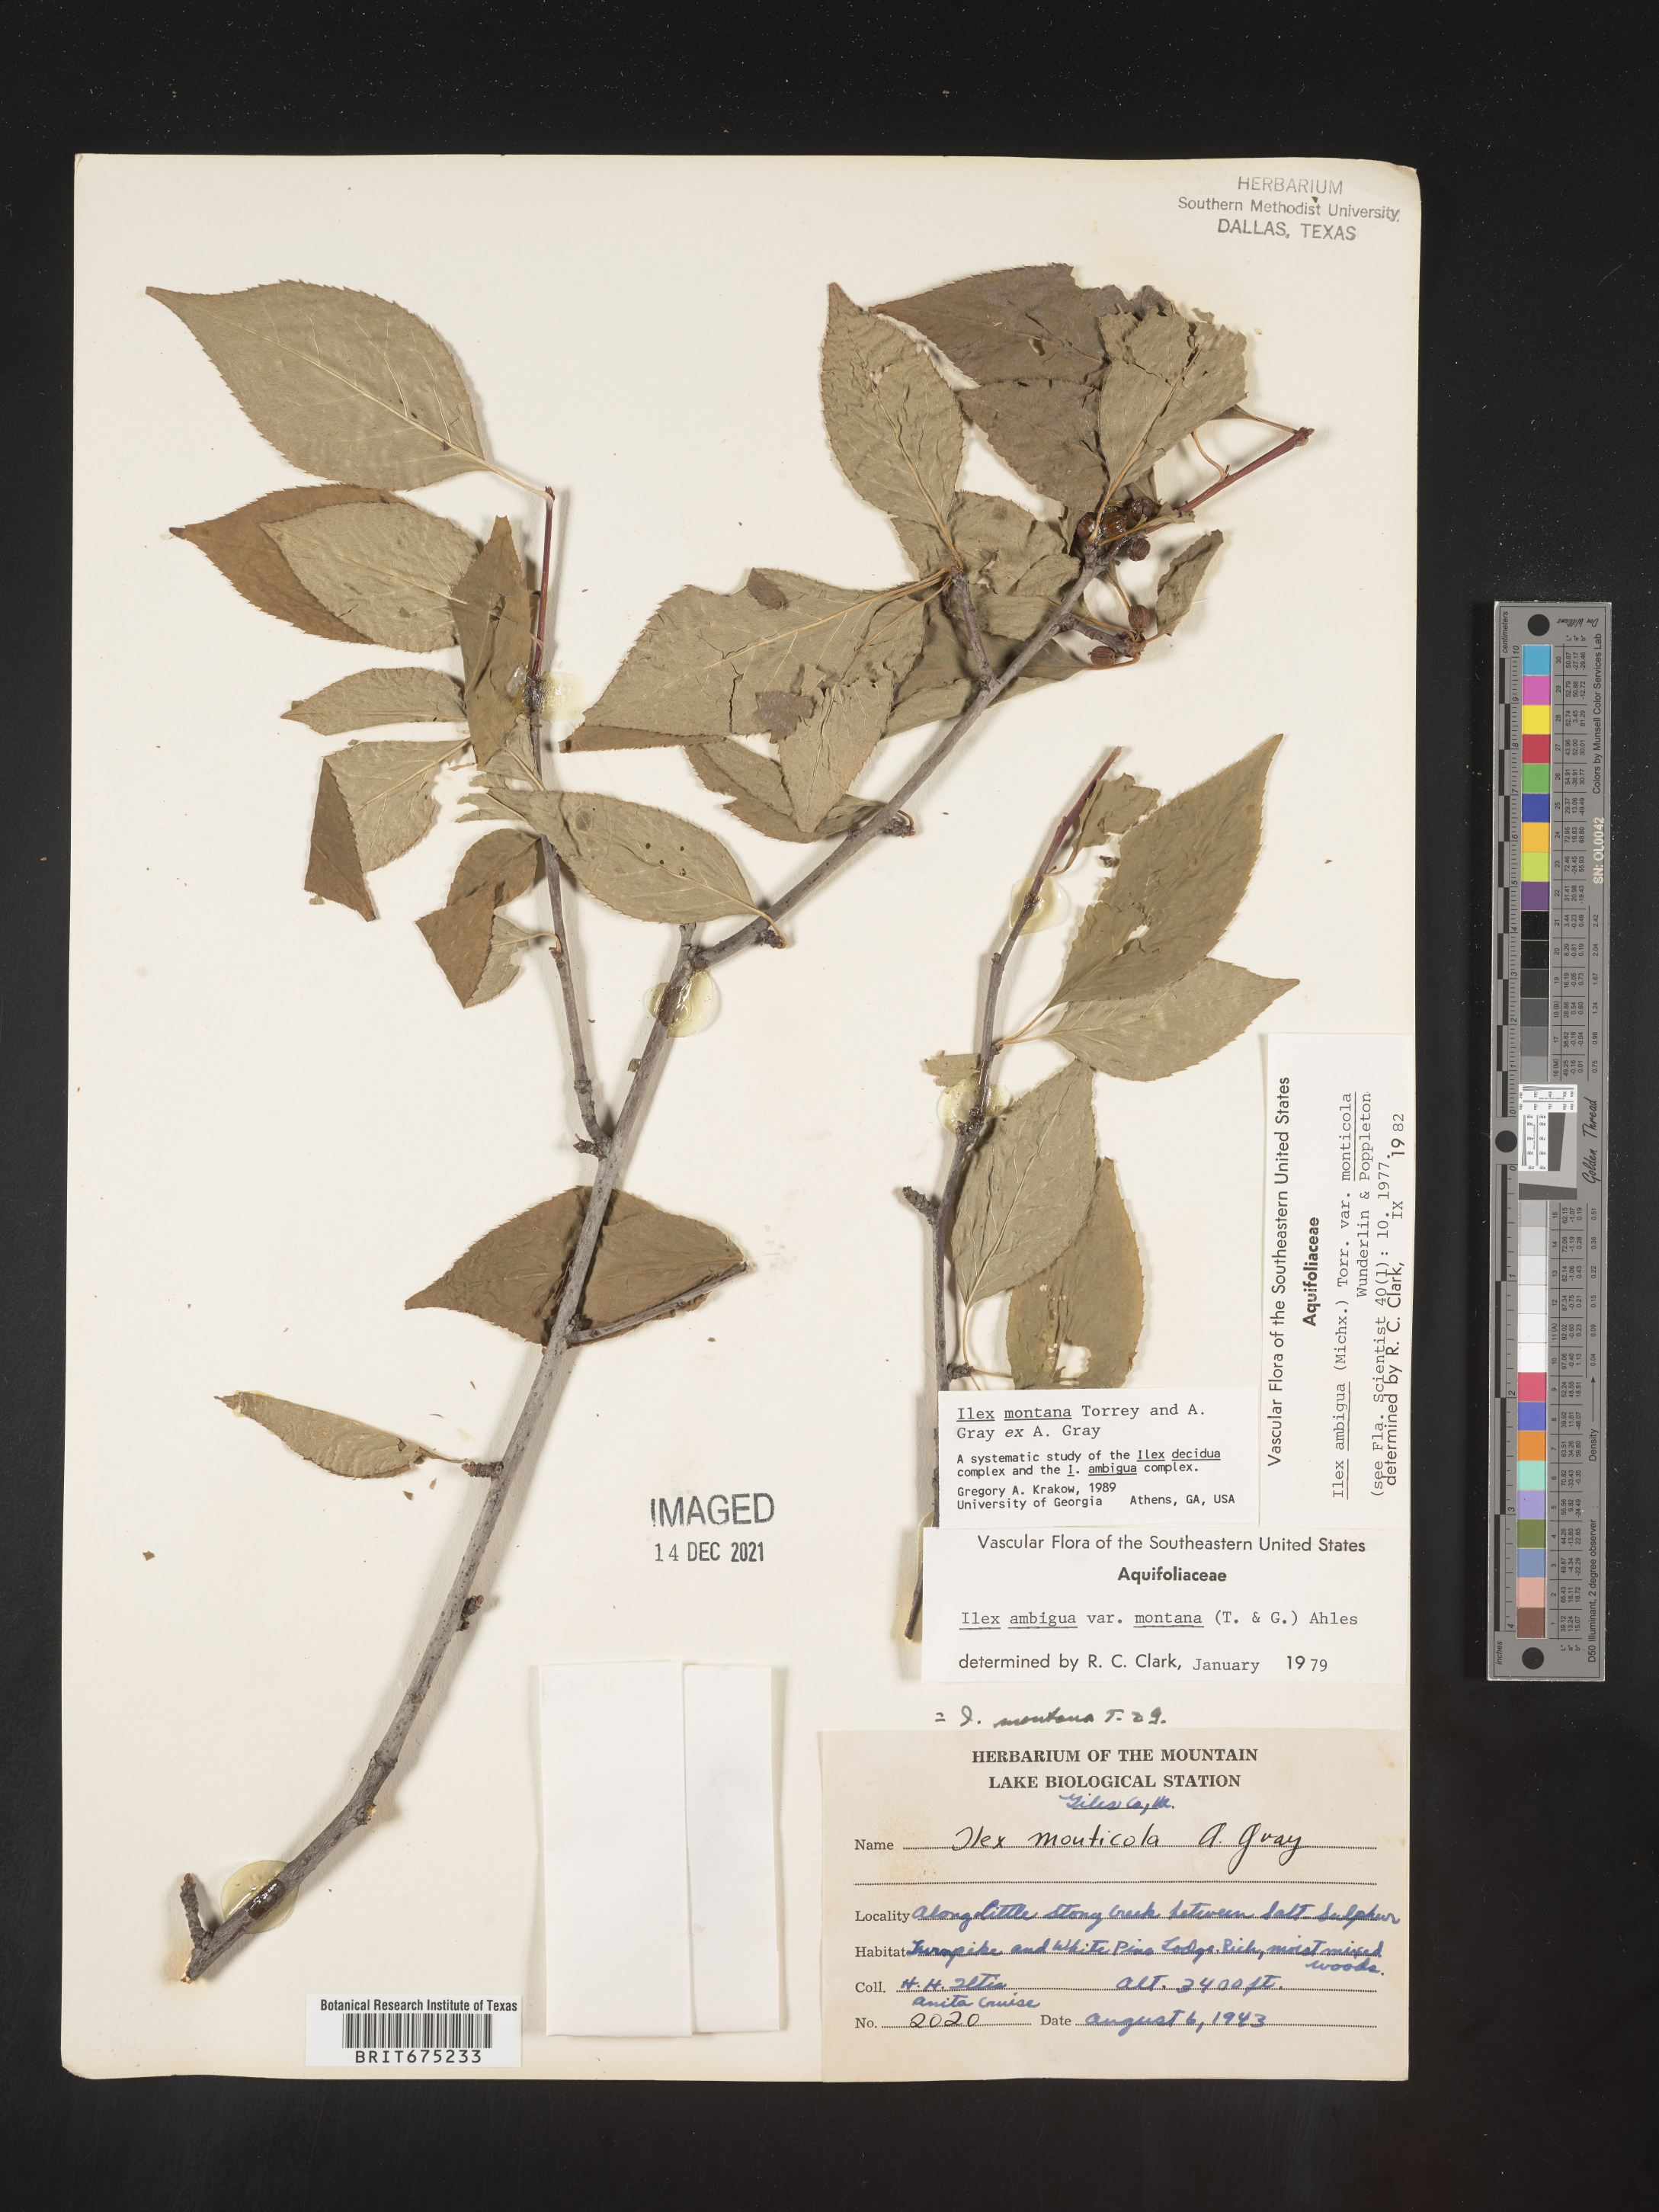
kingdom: Plantae
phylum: Tracheophyta
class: Magnoliopsida
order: Aquifoliales
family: Aquifoliaceae
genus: Ilex
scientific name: Ilex montana
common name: Mountain winterberry
